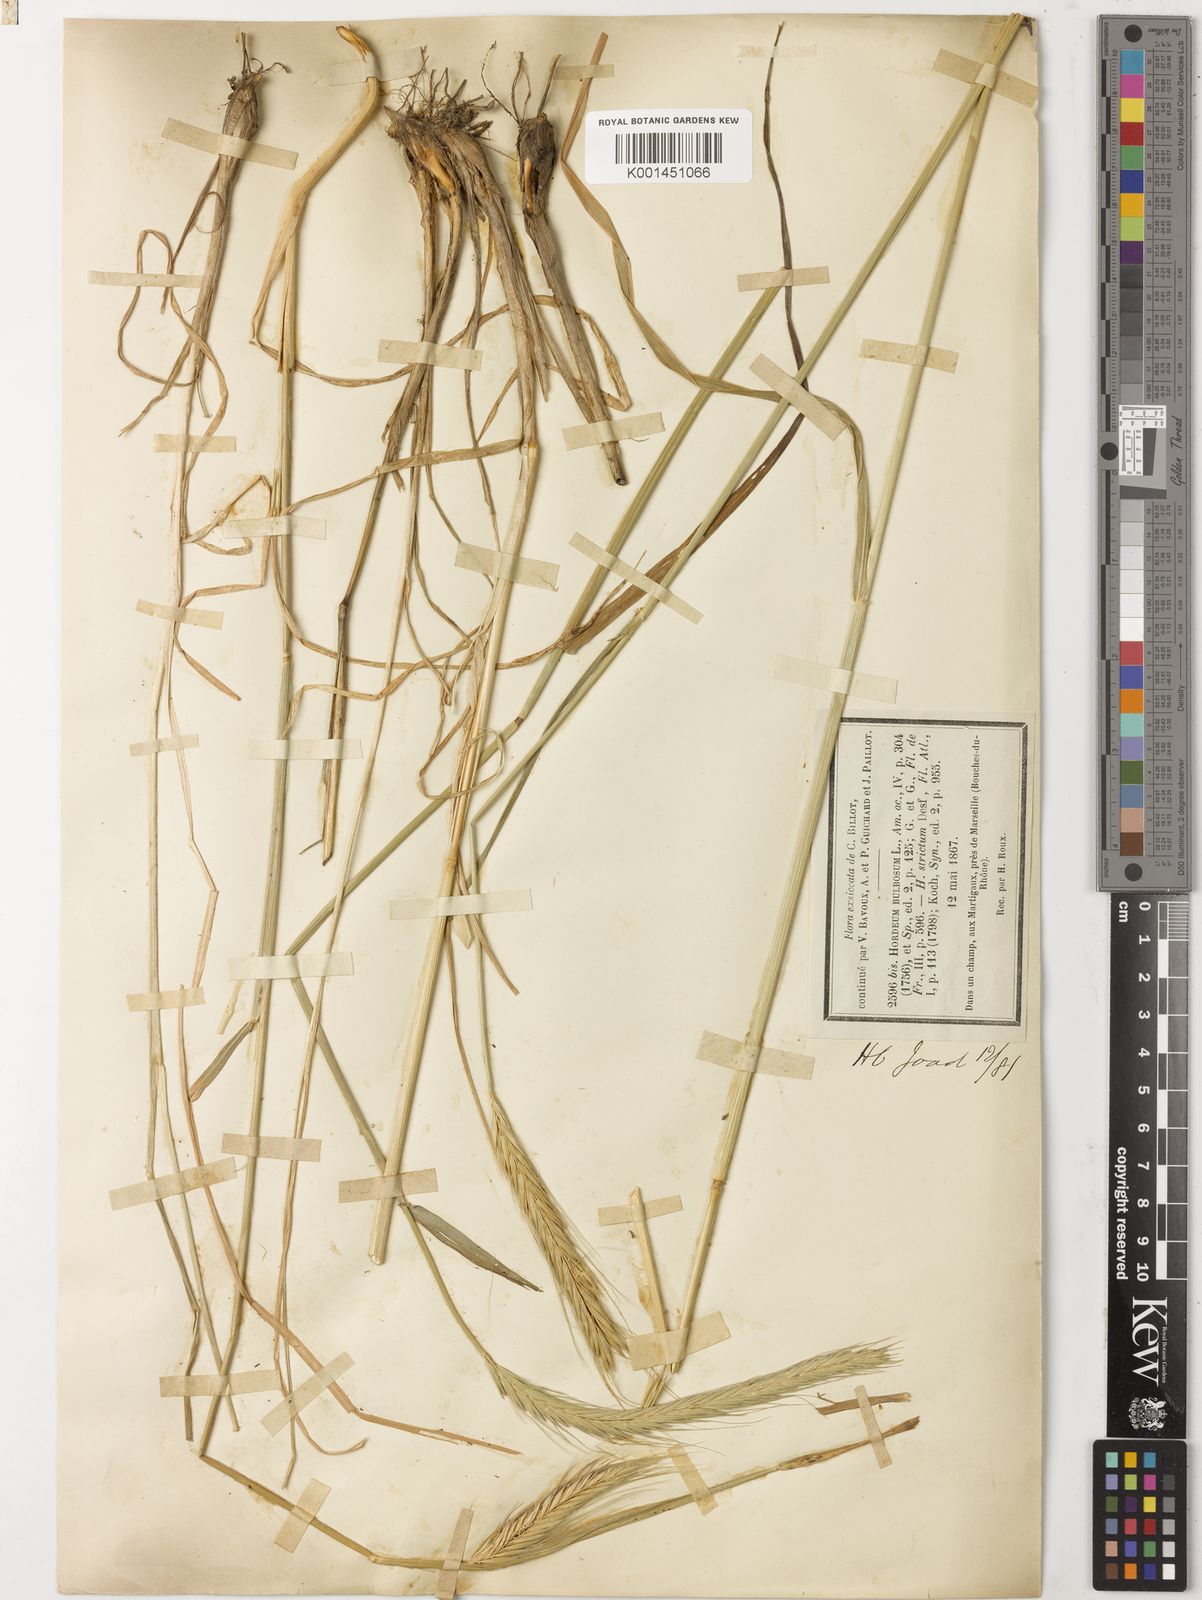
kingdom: Plantae
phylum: Tracheophyta
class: Liliopsida
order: Poales
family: Poaceae
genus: Hordeum
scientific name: Hordeum bulbosum
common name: Bulbous barley
